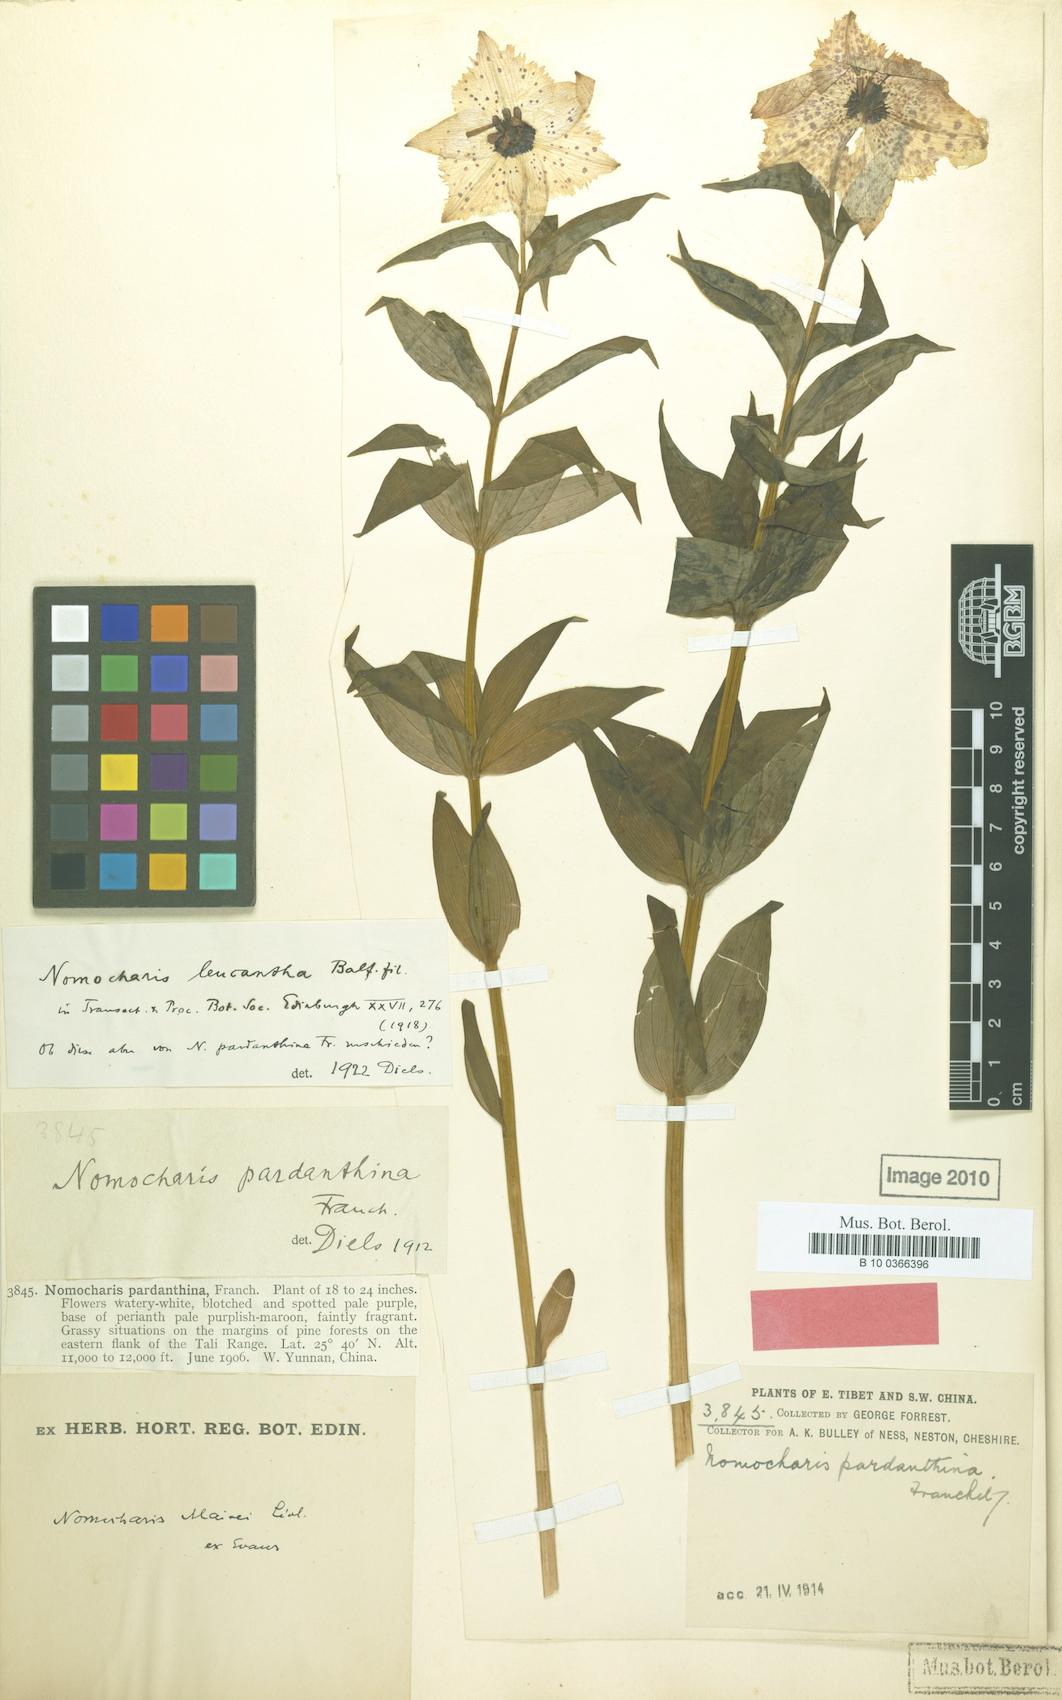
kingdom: Plantae
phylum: Tracheophyta
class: Liliopsida
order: Liliales
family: Liliaceae
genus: Lilium
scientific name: Lilium pardanthinum
